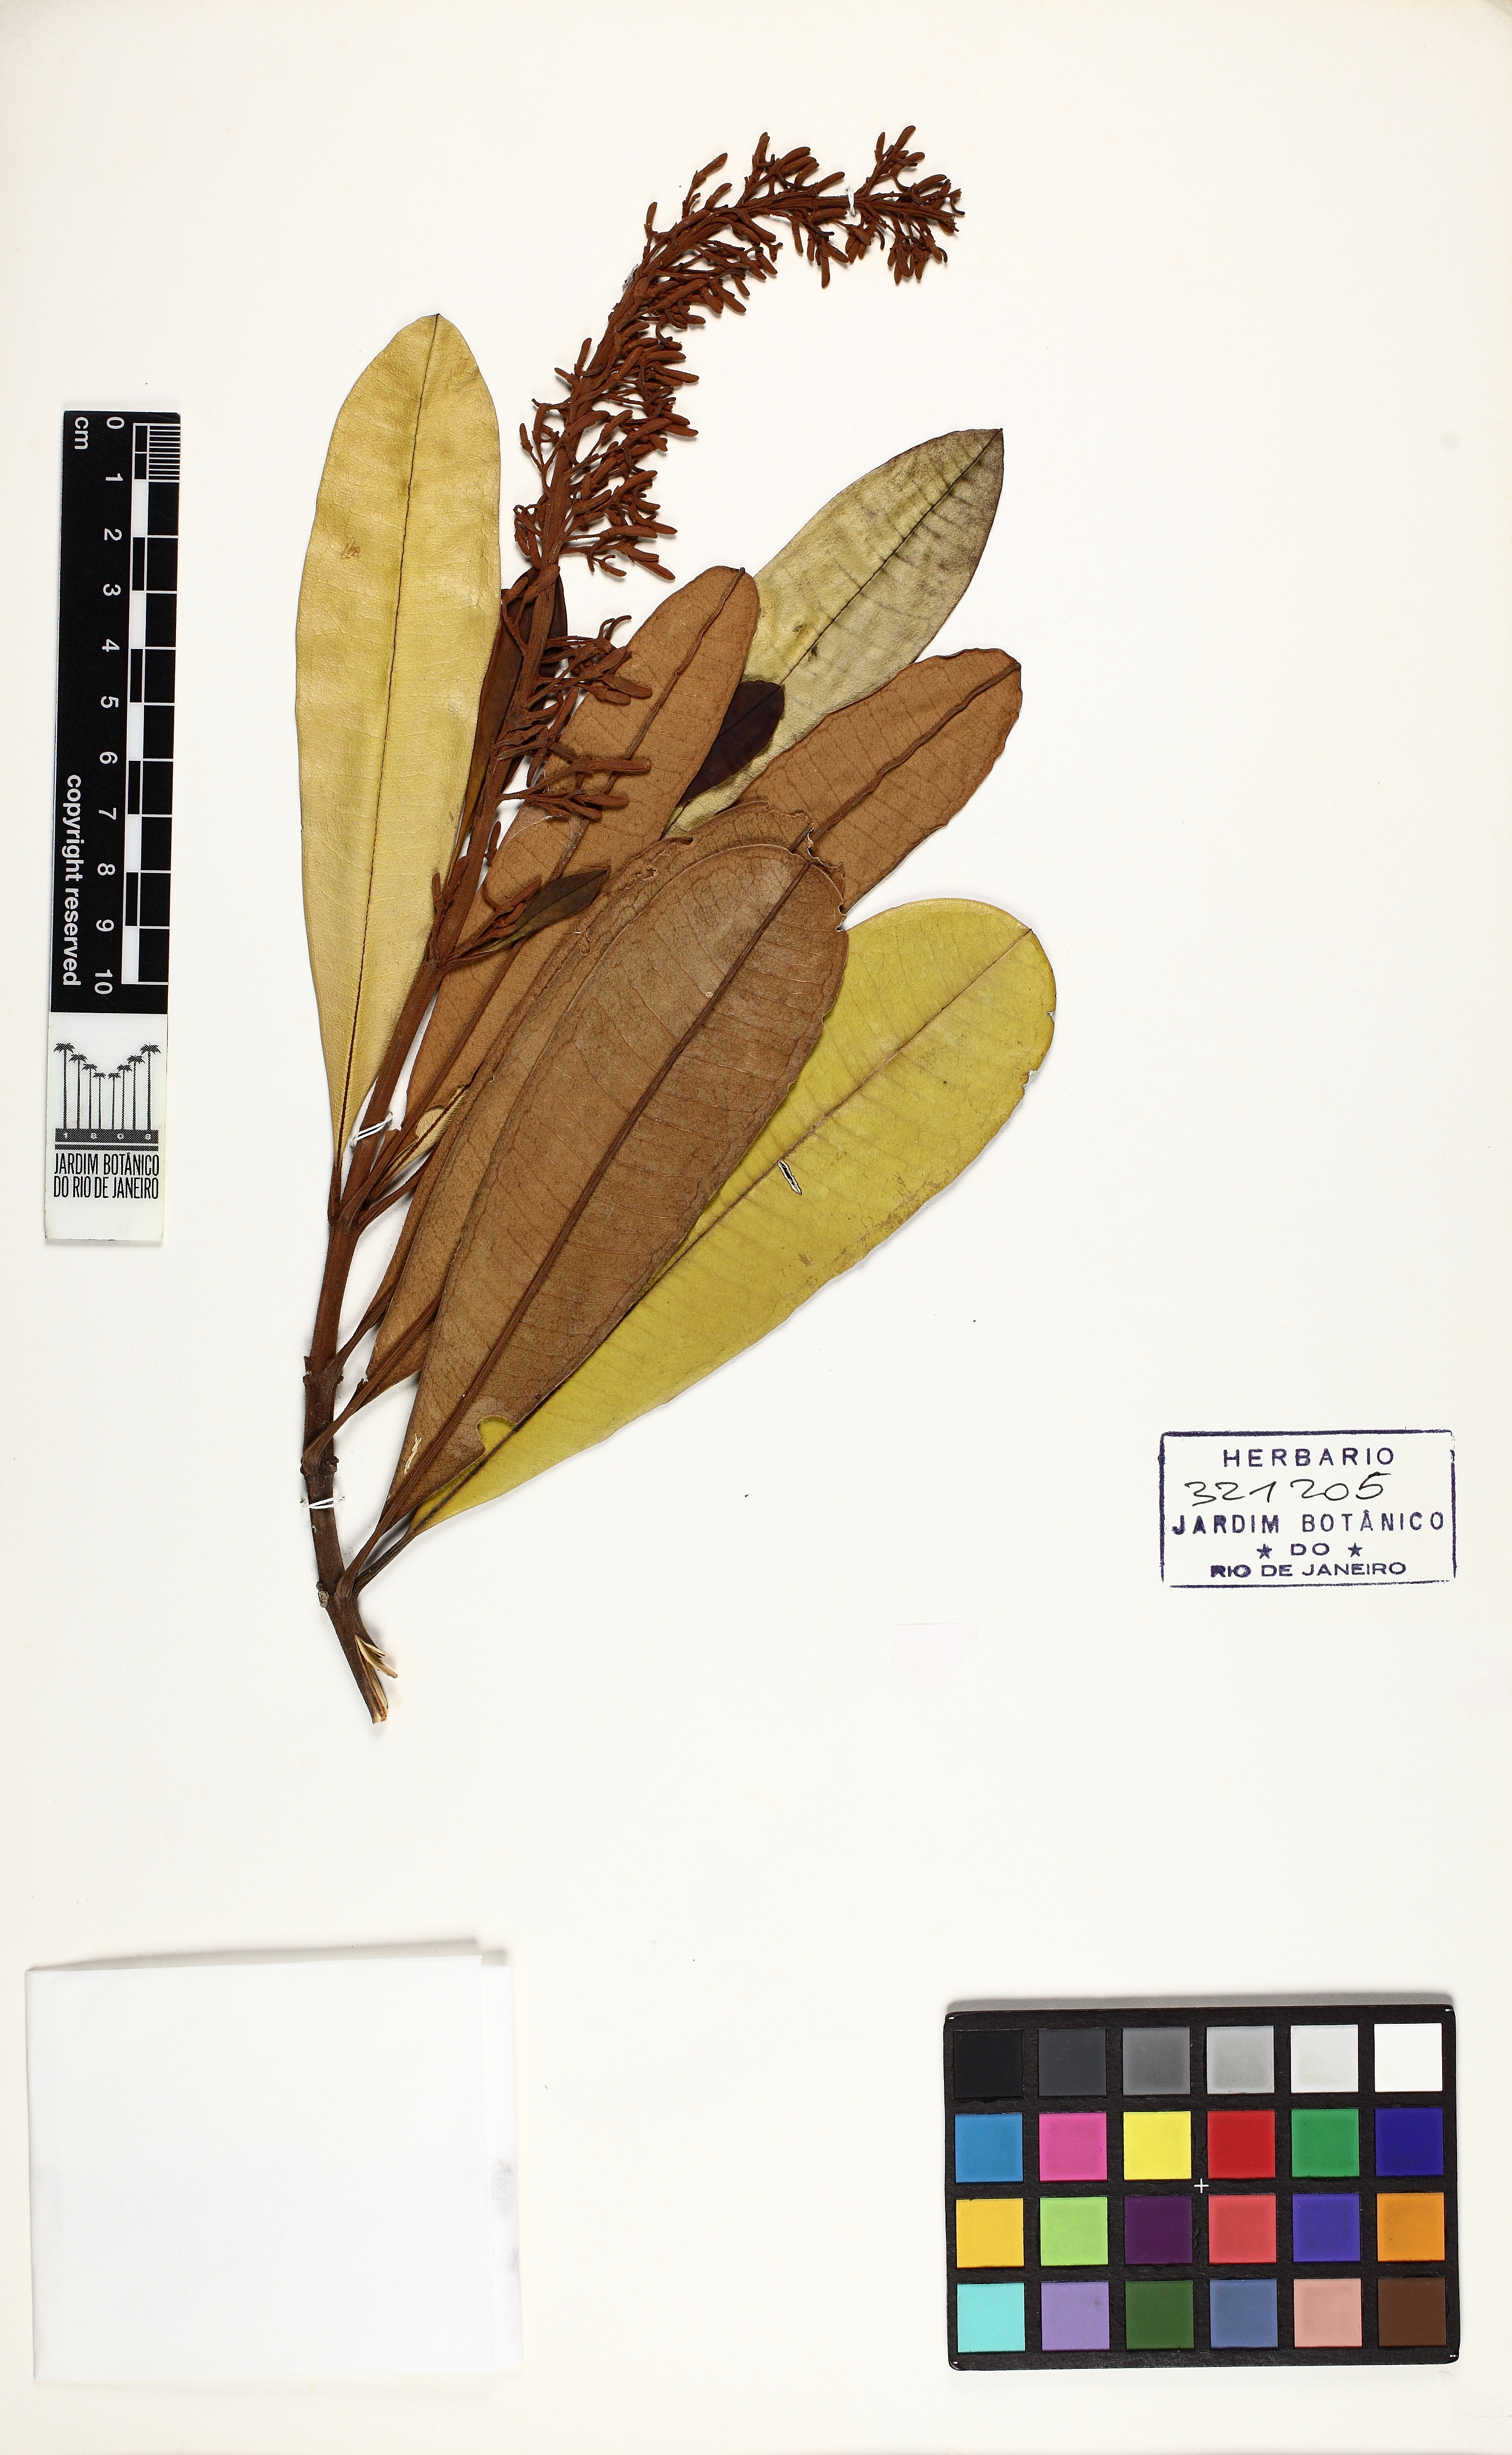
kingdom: Plantae
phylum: Tracheophyta
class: Magnoliopsida
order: Myrtales
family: Vochysiaceae
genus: Vochysia
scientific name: Vochysia gummifera
